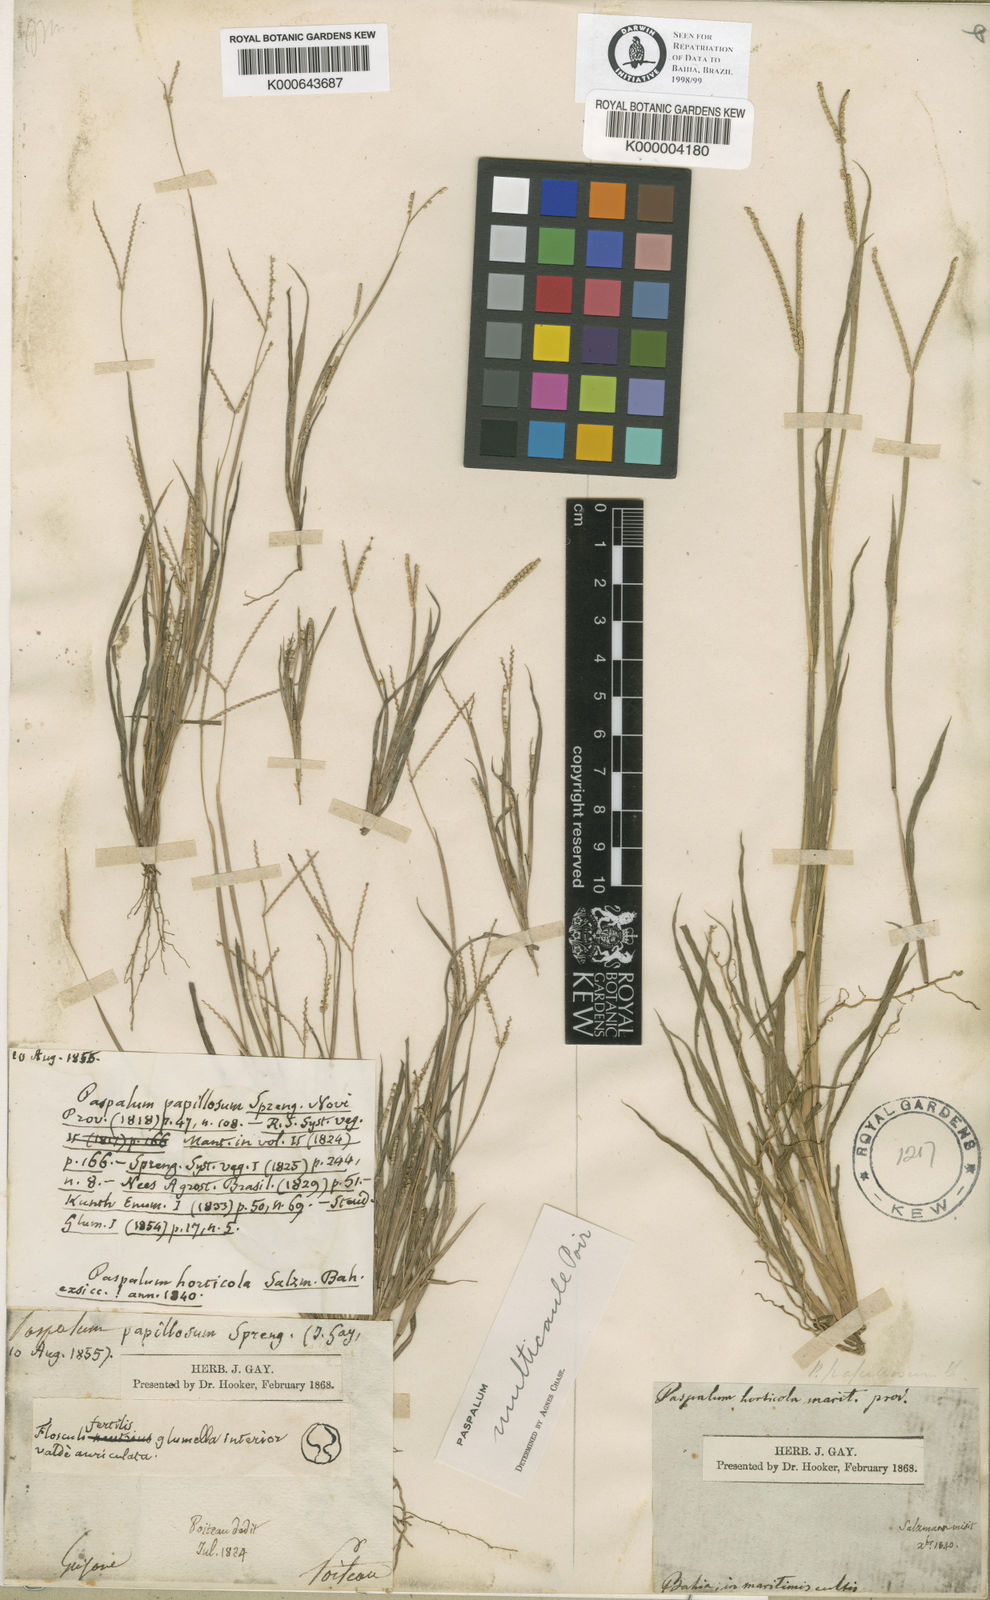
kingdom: Plantae
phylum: Tracheophyta
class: Liliopsida
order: Poales
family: Poaceae
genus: Paspalum
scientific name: Paspalum multicaule
